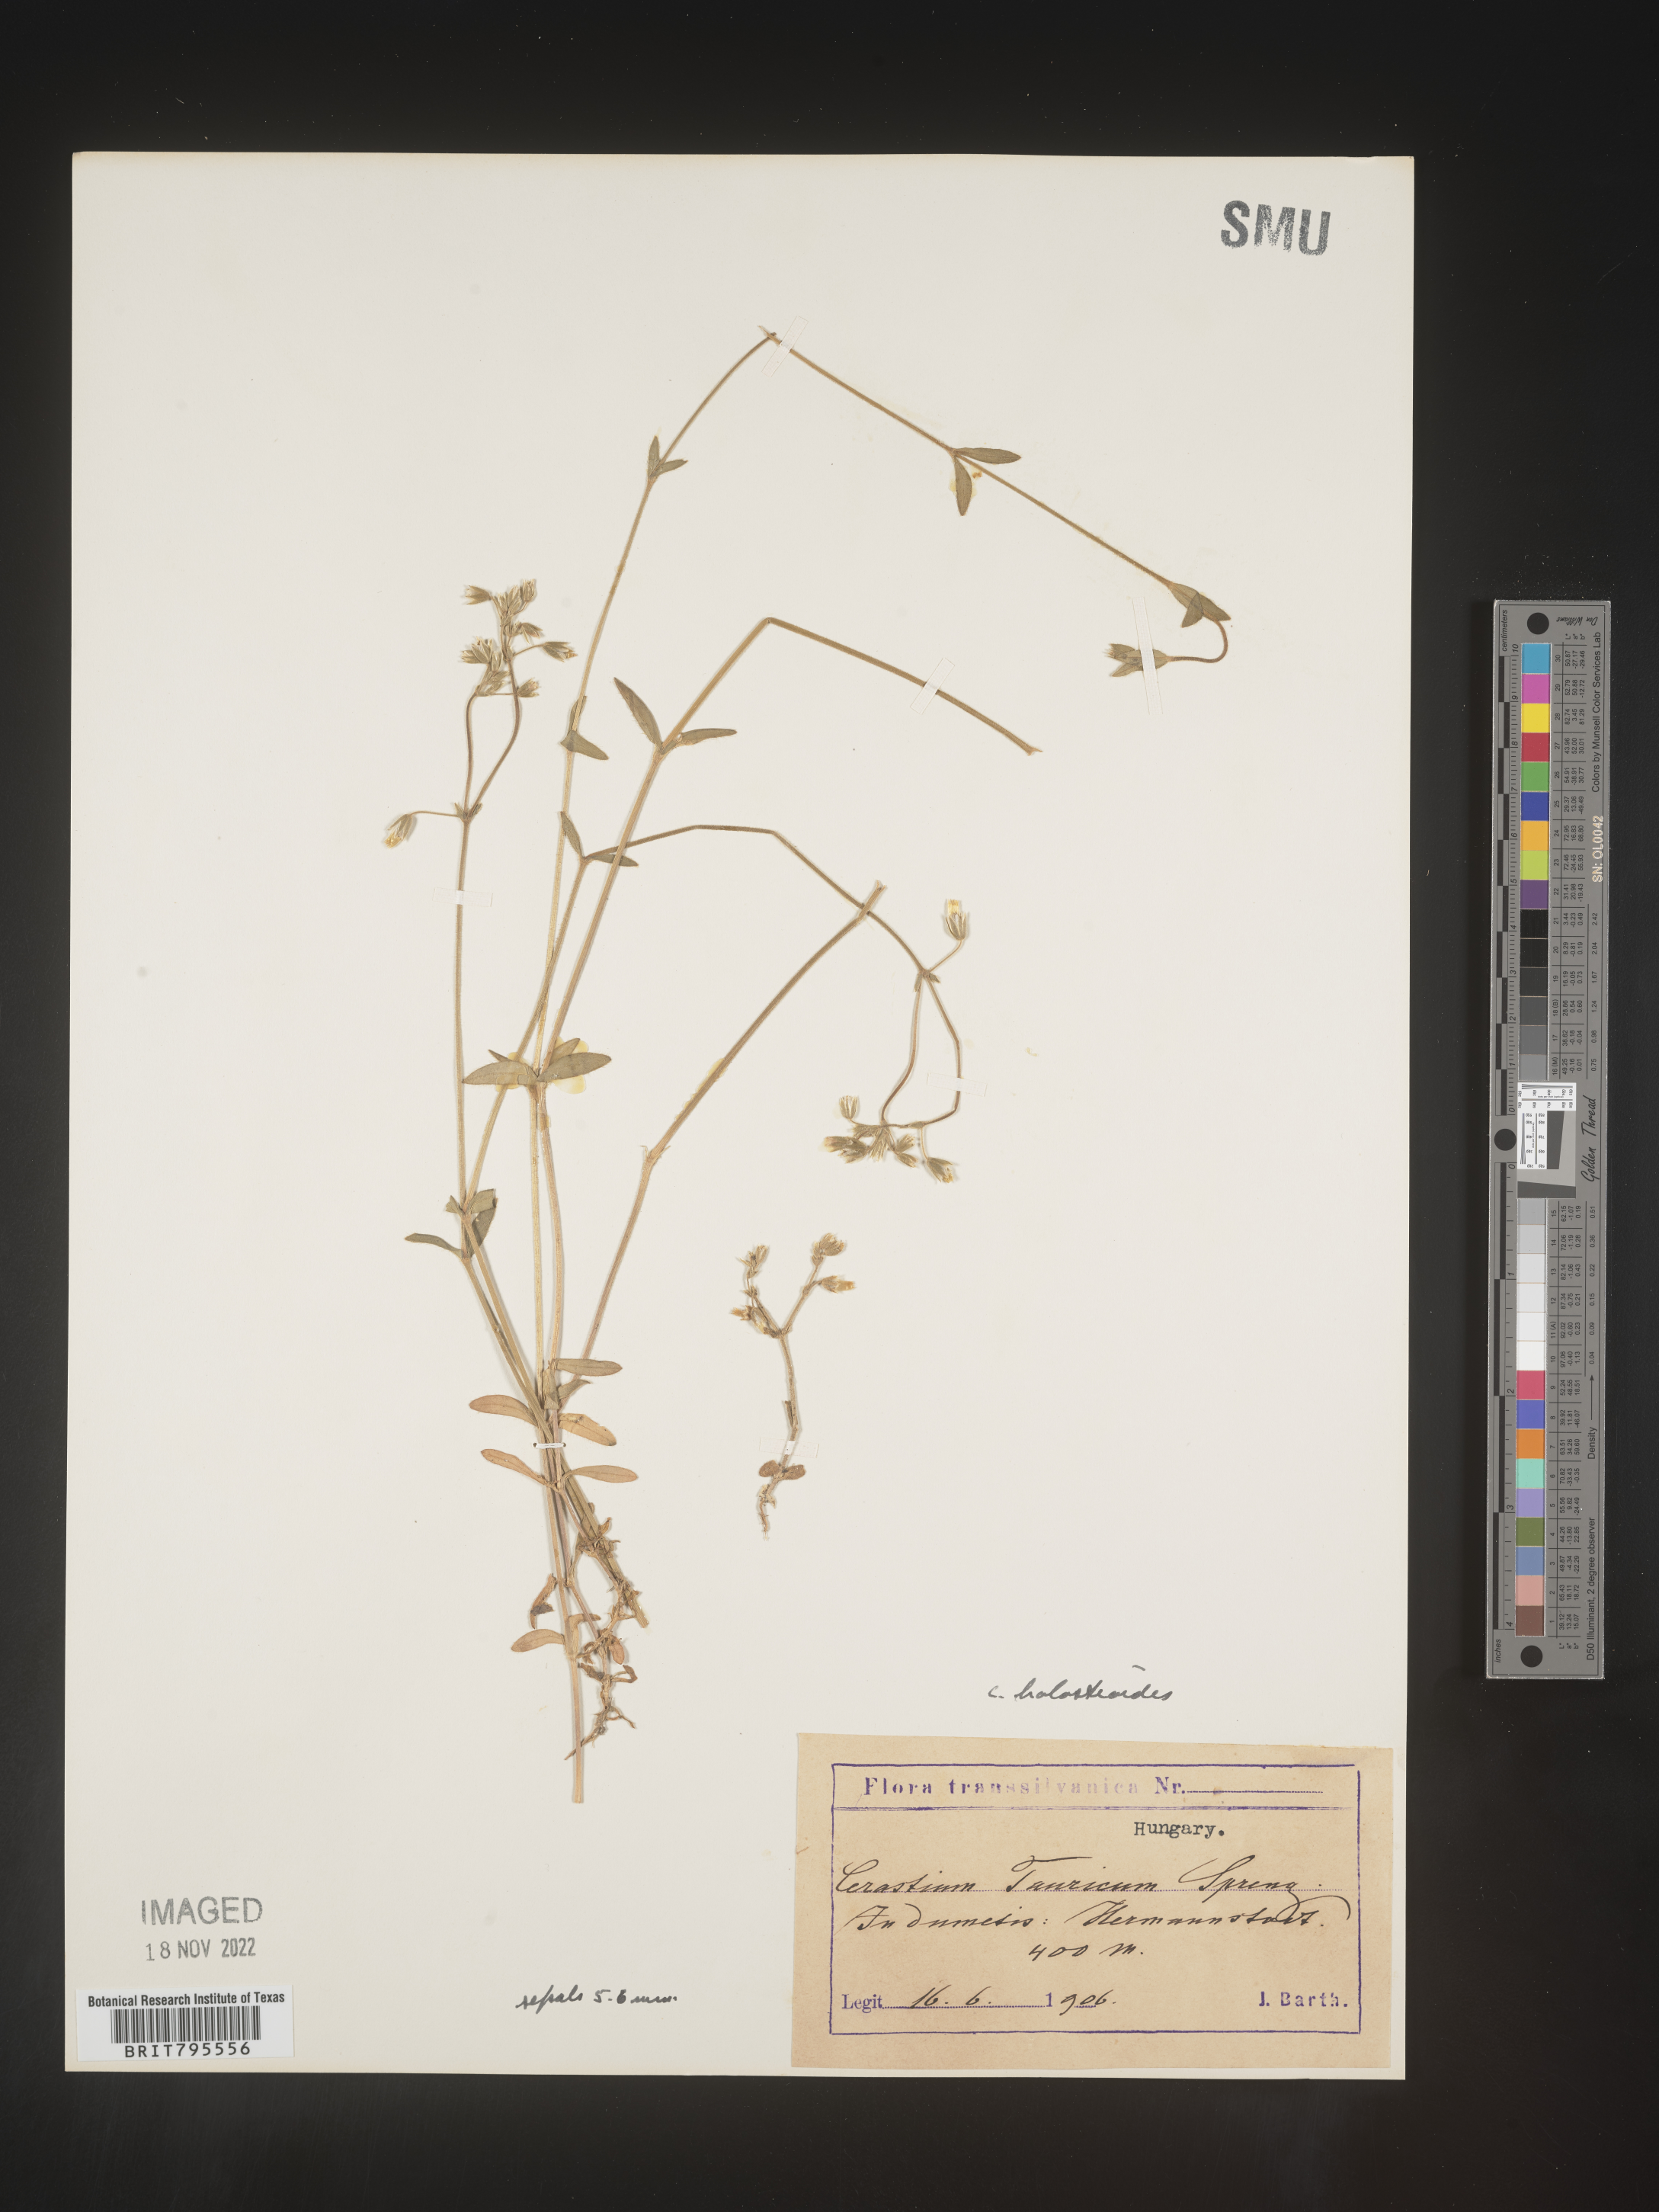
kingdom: Plantae
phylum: Tracheophyta
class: Magnoliopsida
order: Caryophyllales
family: Caryophyllaceae
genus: Cerastium
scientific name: Cerastium
